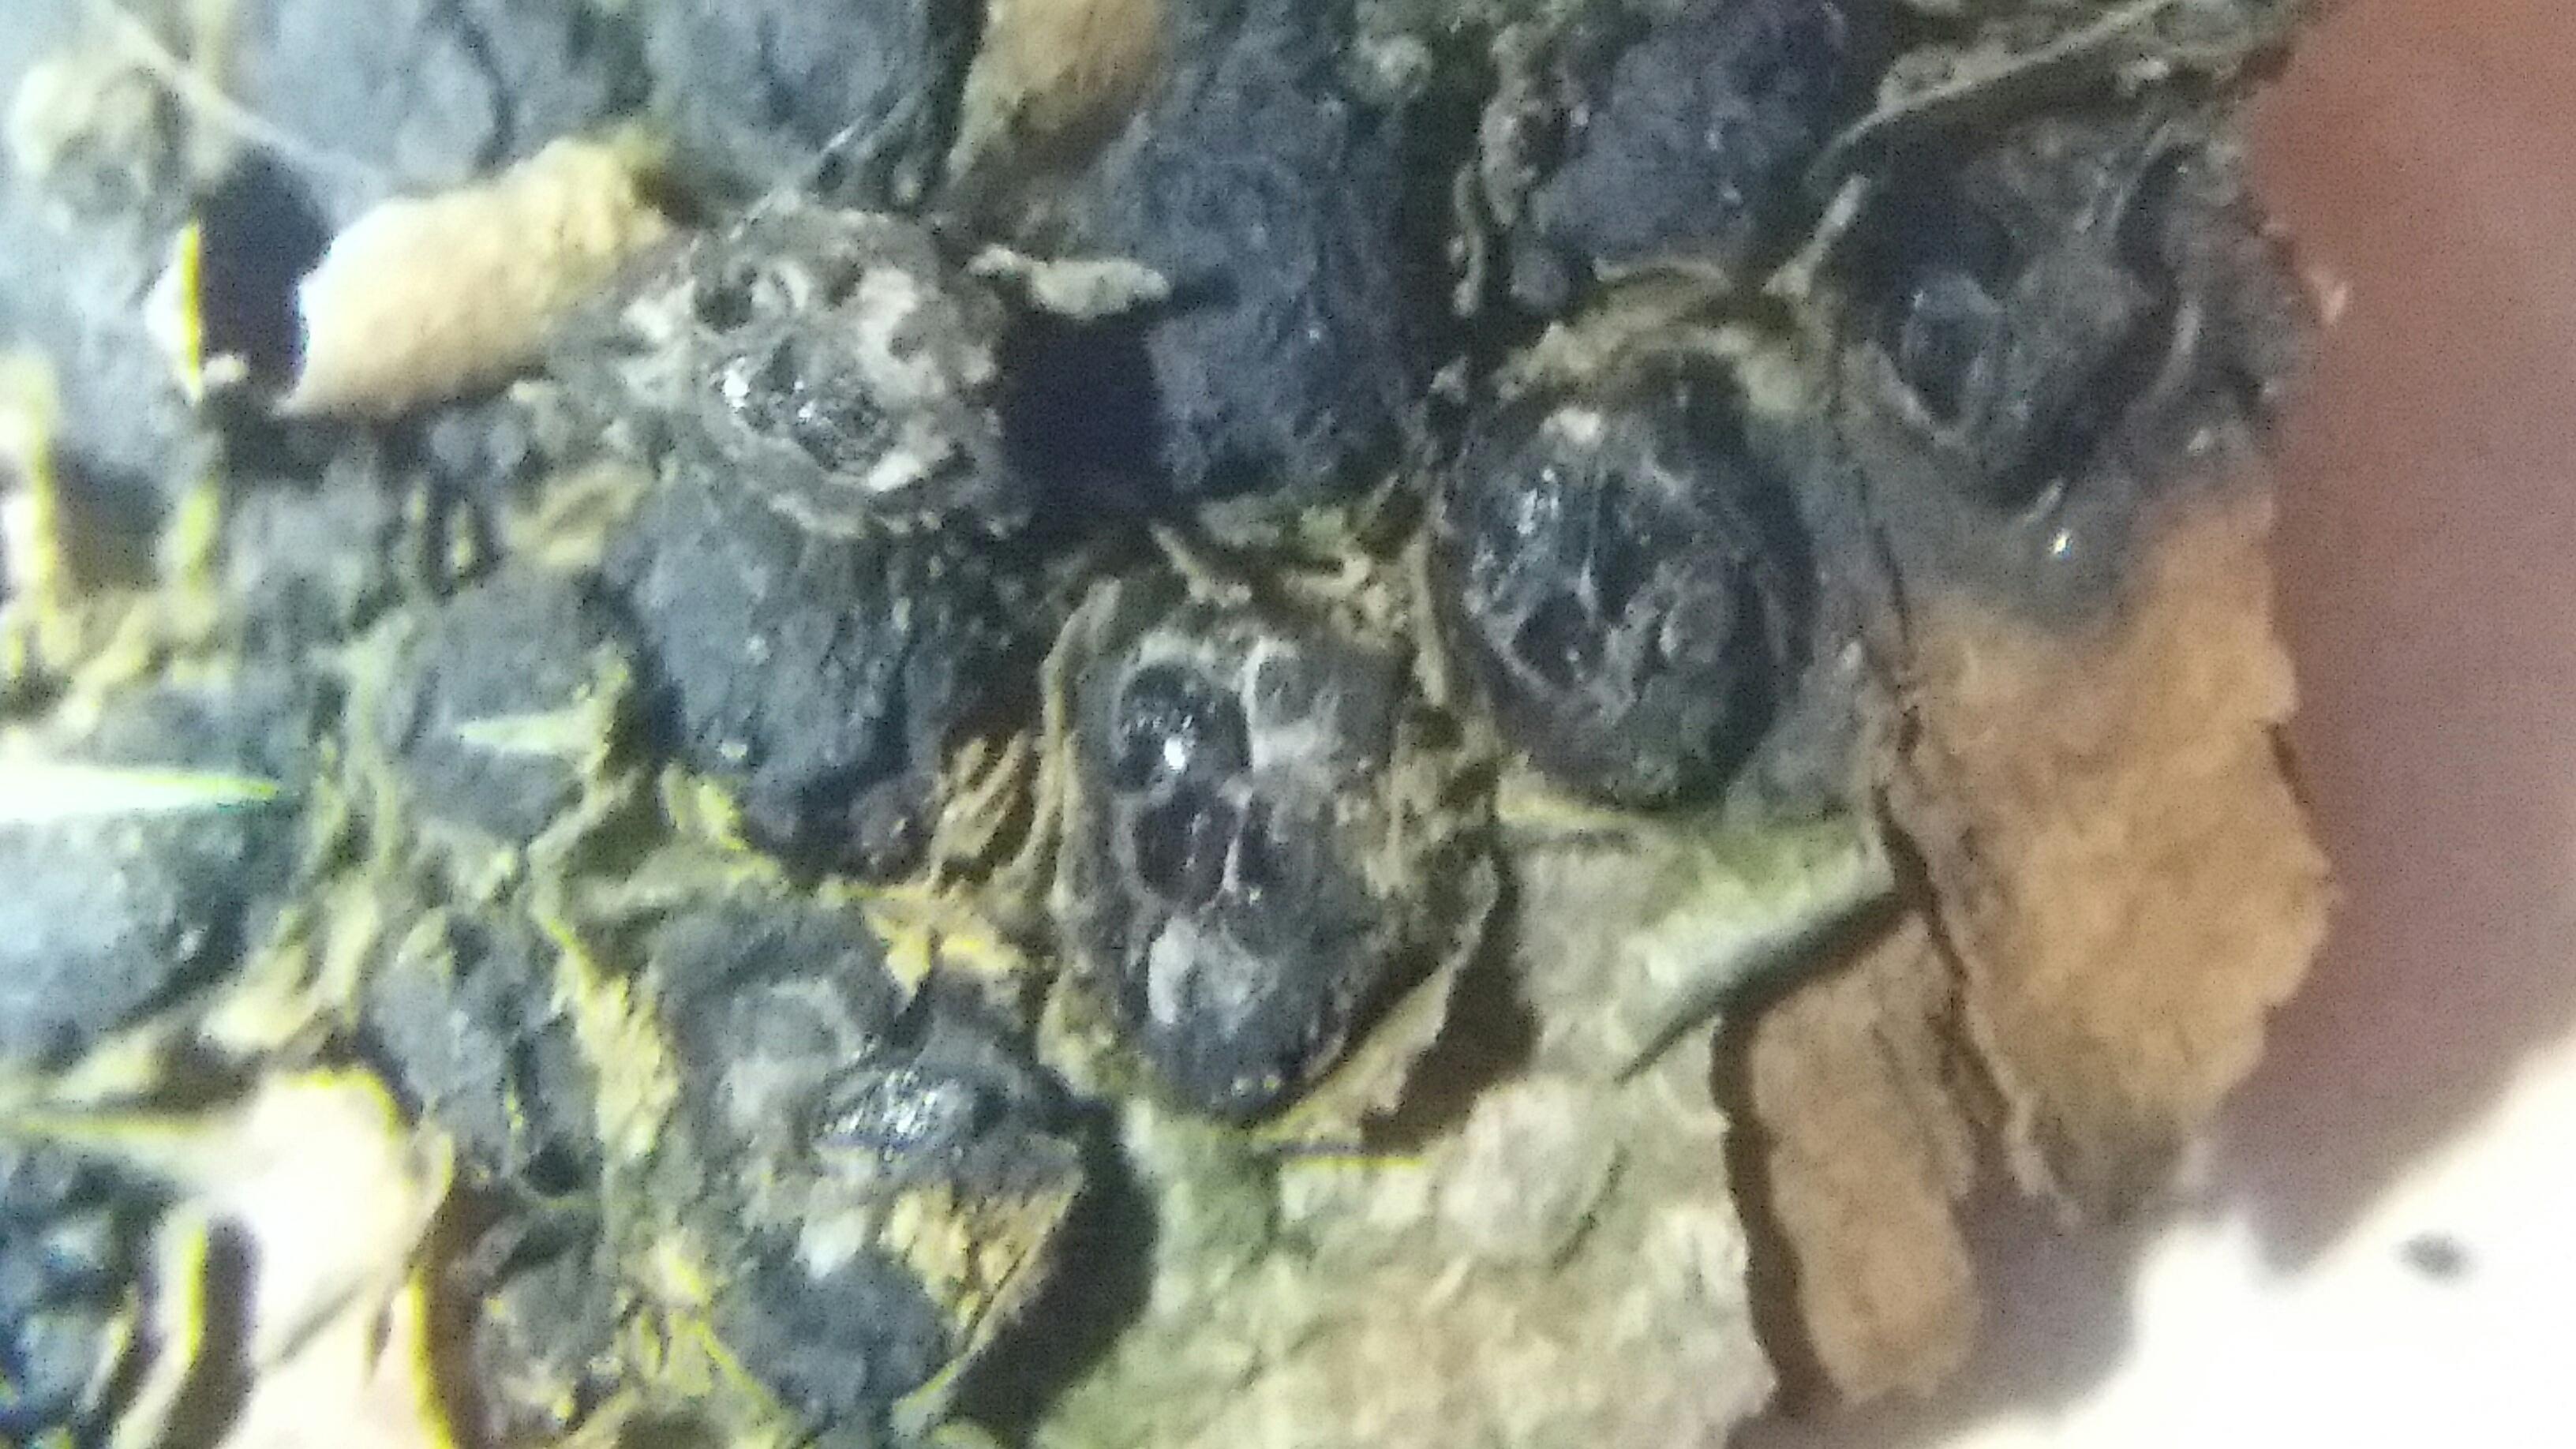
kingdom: Fungi
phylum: Ascomycota
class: Sordariomycetes
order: Xylariales
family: Melogrammataceae
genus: Melogramma
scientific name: Melogramma spiniferum
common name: bøgefod-kulhals
